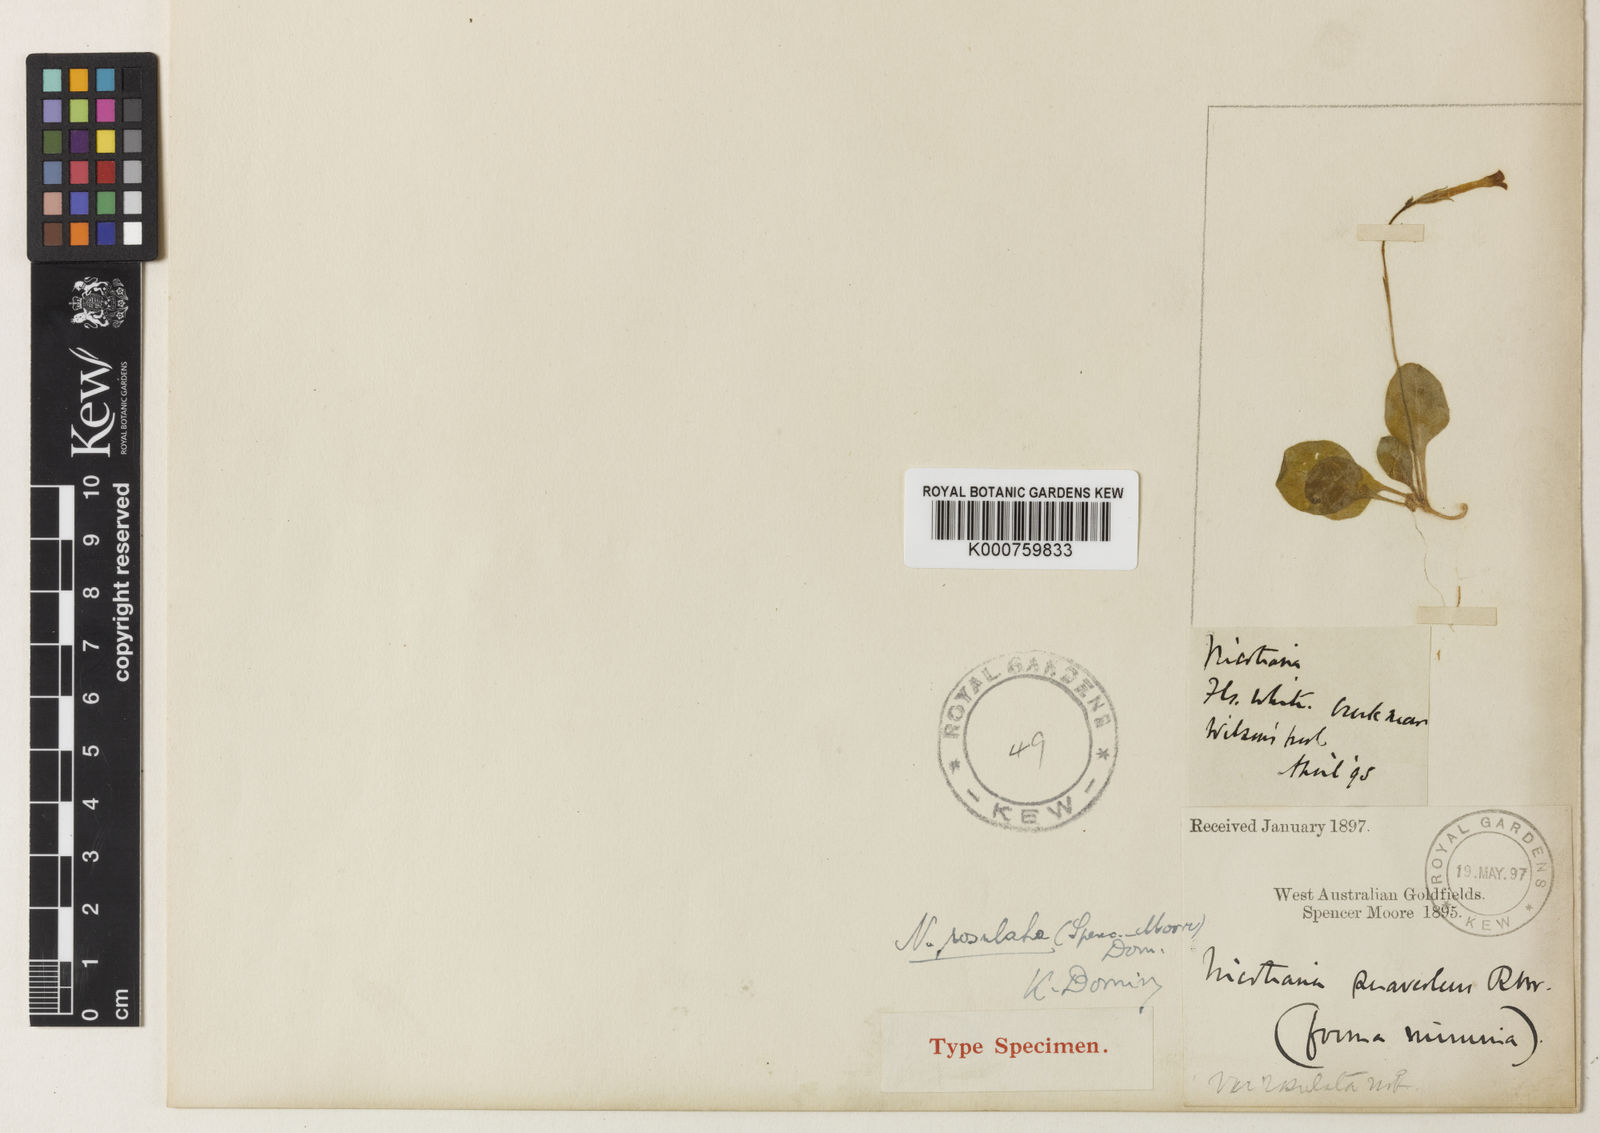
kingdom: Plantae
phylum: Tracheophyta
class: Magnoliopsida
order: Solanales
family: Solanaceae
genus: Nicotiana
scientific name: Nicotiana rosulata
